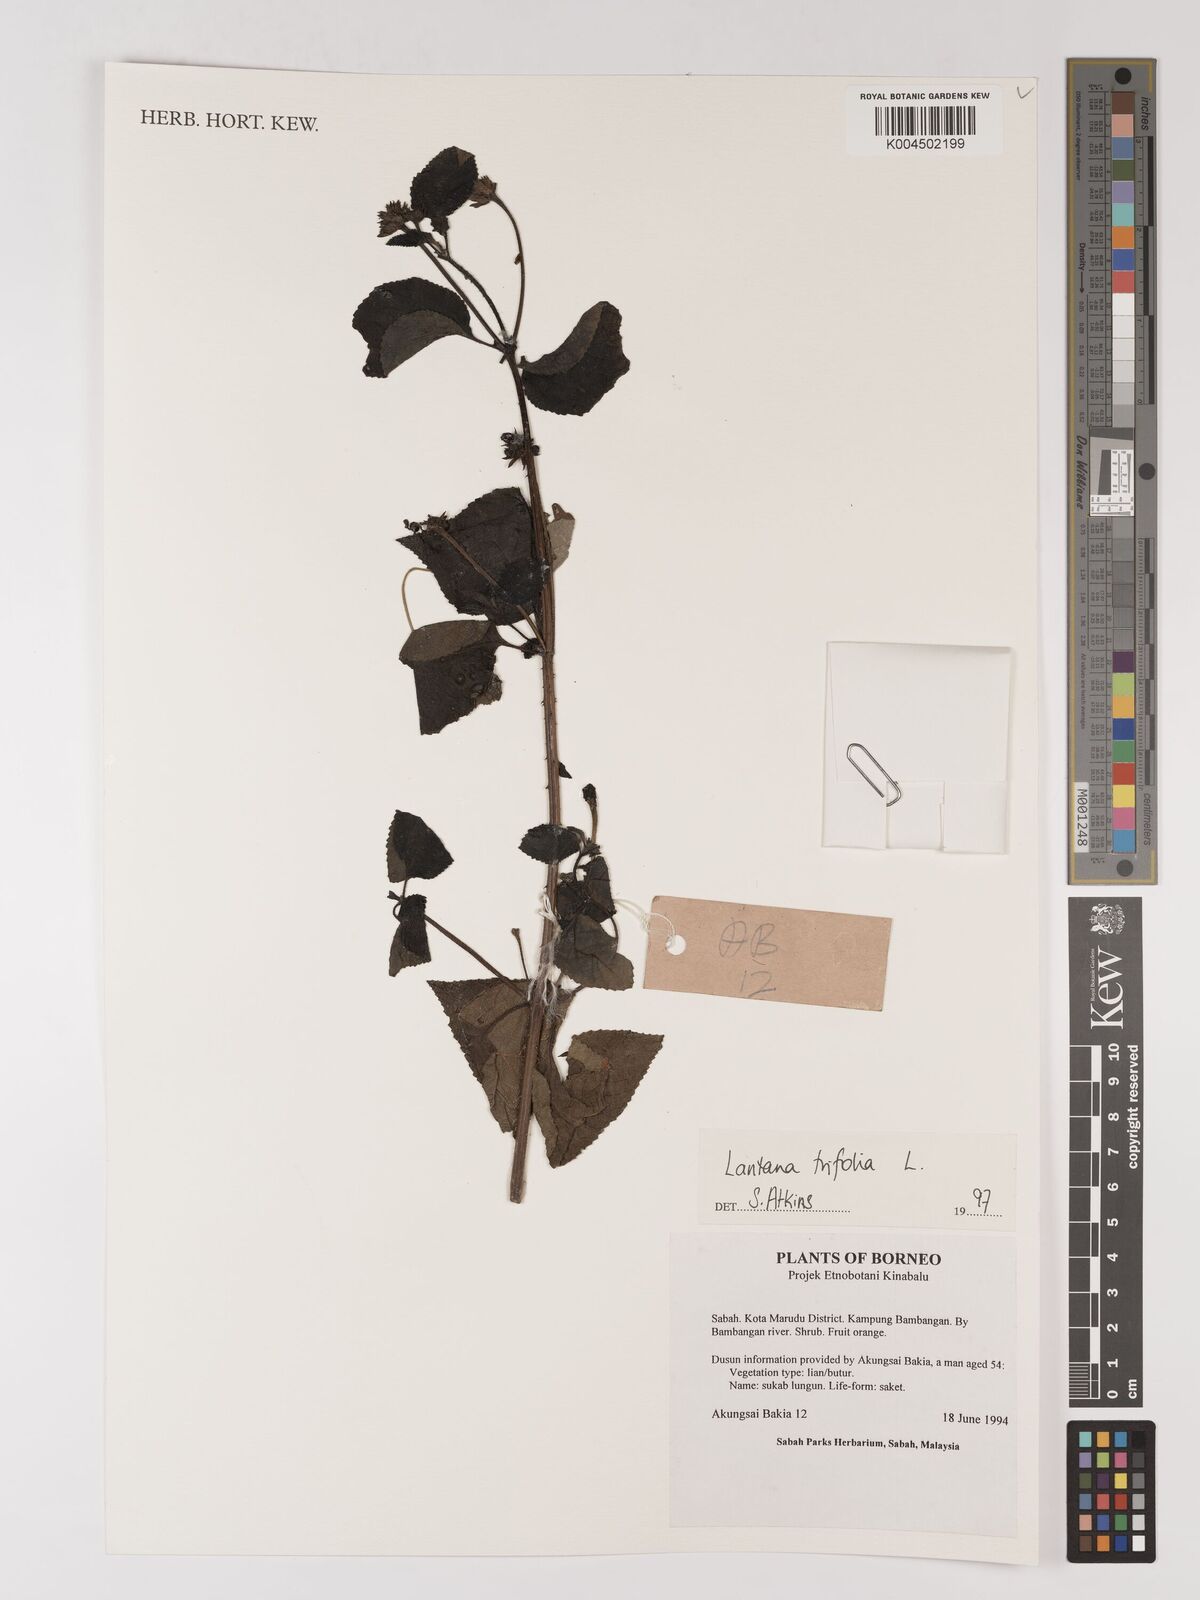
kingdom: Plantae
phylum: Tracheophyta
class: Magnoliopsida
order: Lamiales
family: Verbenaceae
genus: Lantana
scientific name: Lantana trifolia
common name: Sweet-sage
